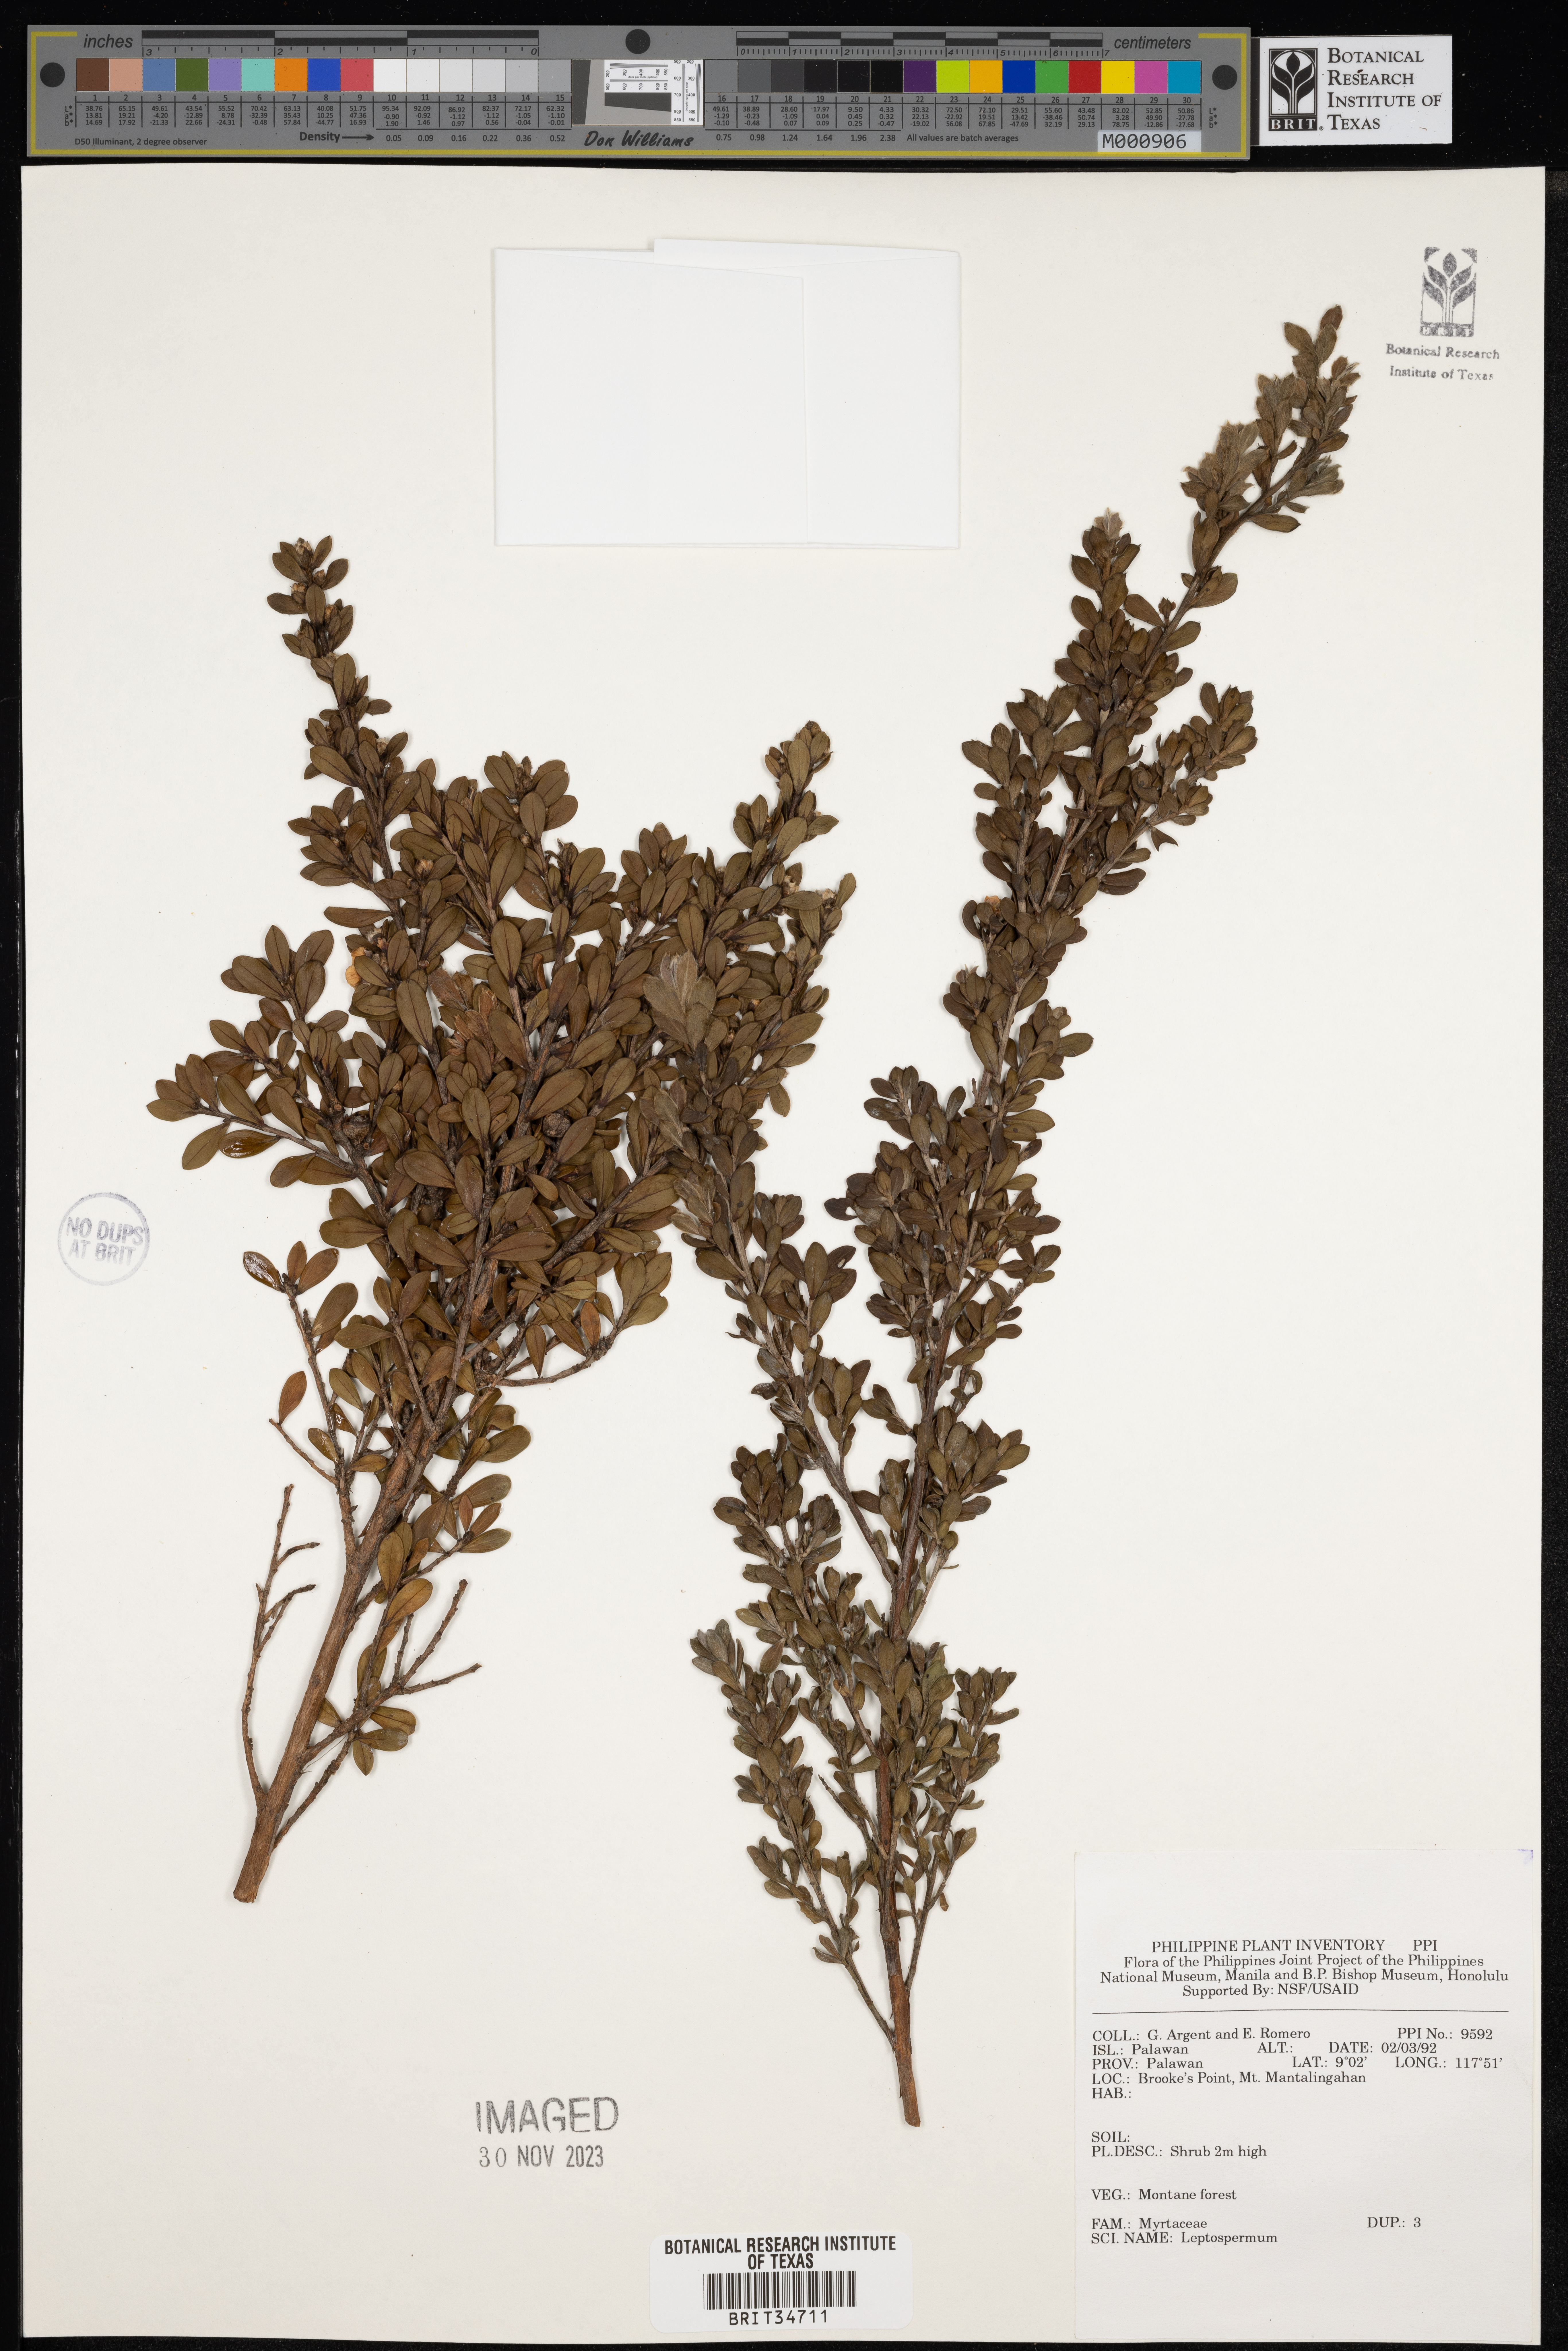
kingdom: Plantae
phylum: Tracheophyta
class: Magnoliopsida
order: Myrtales
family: Myrtaceae
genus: Leptospermum
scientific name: Leptospermum
